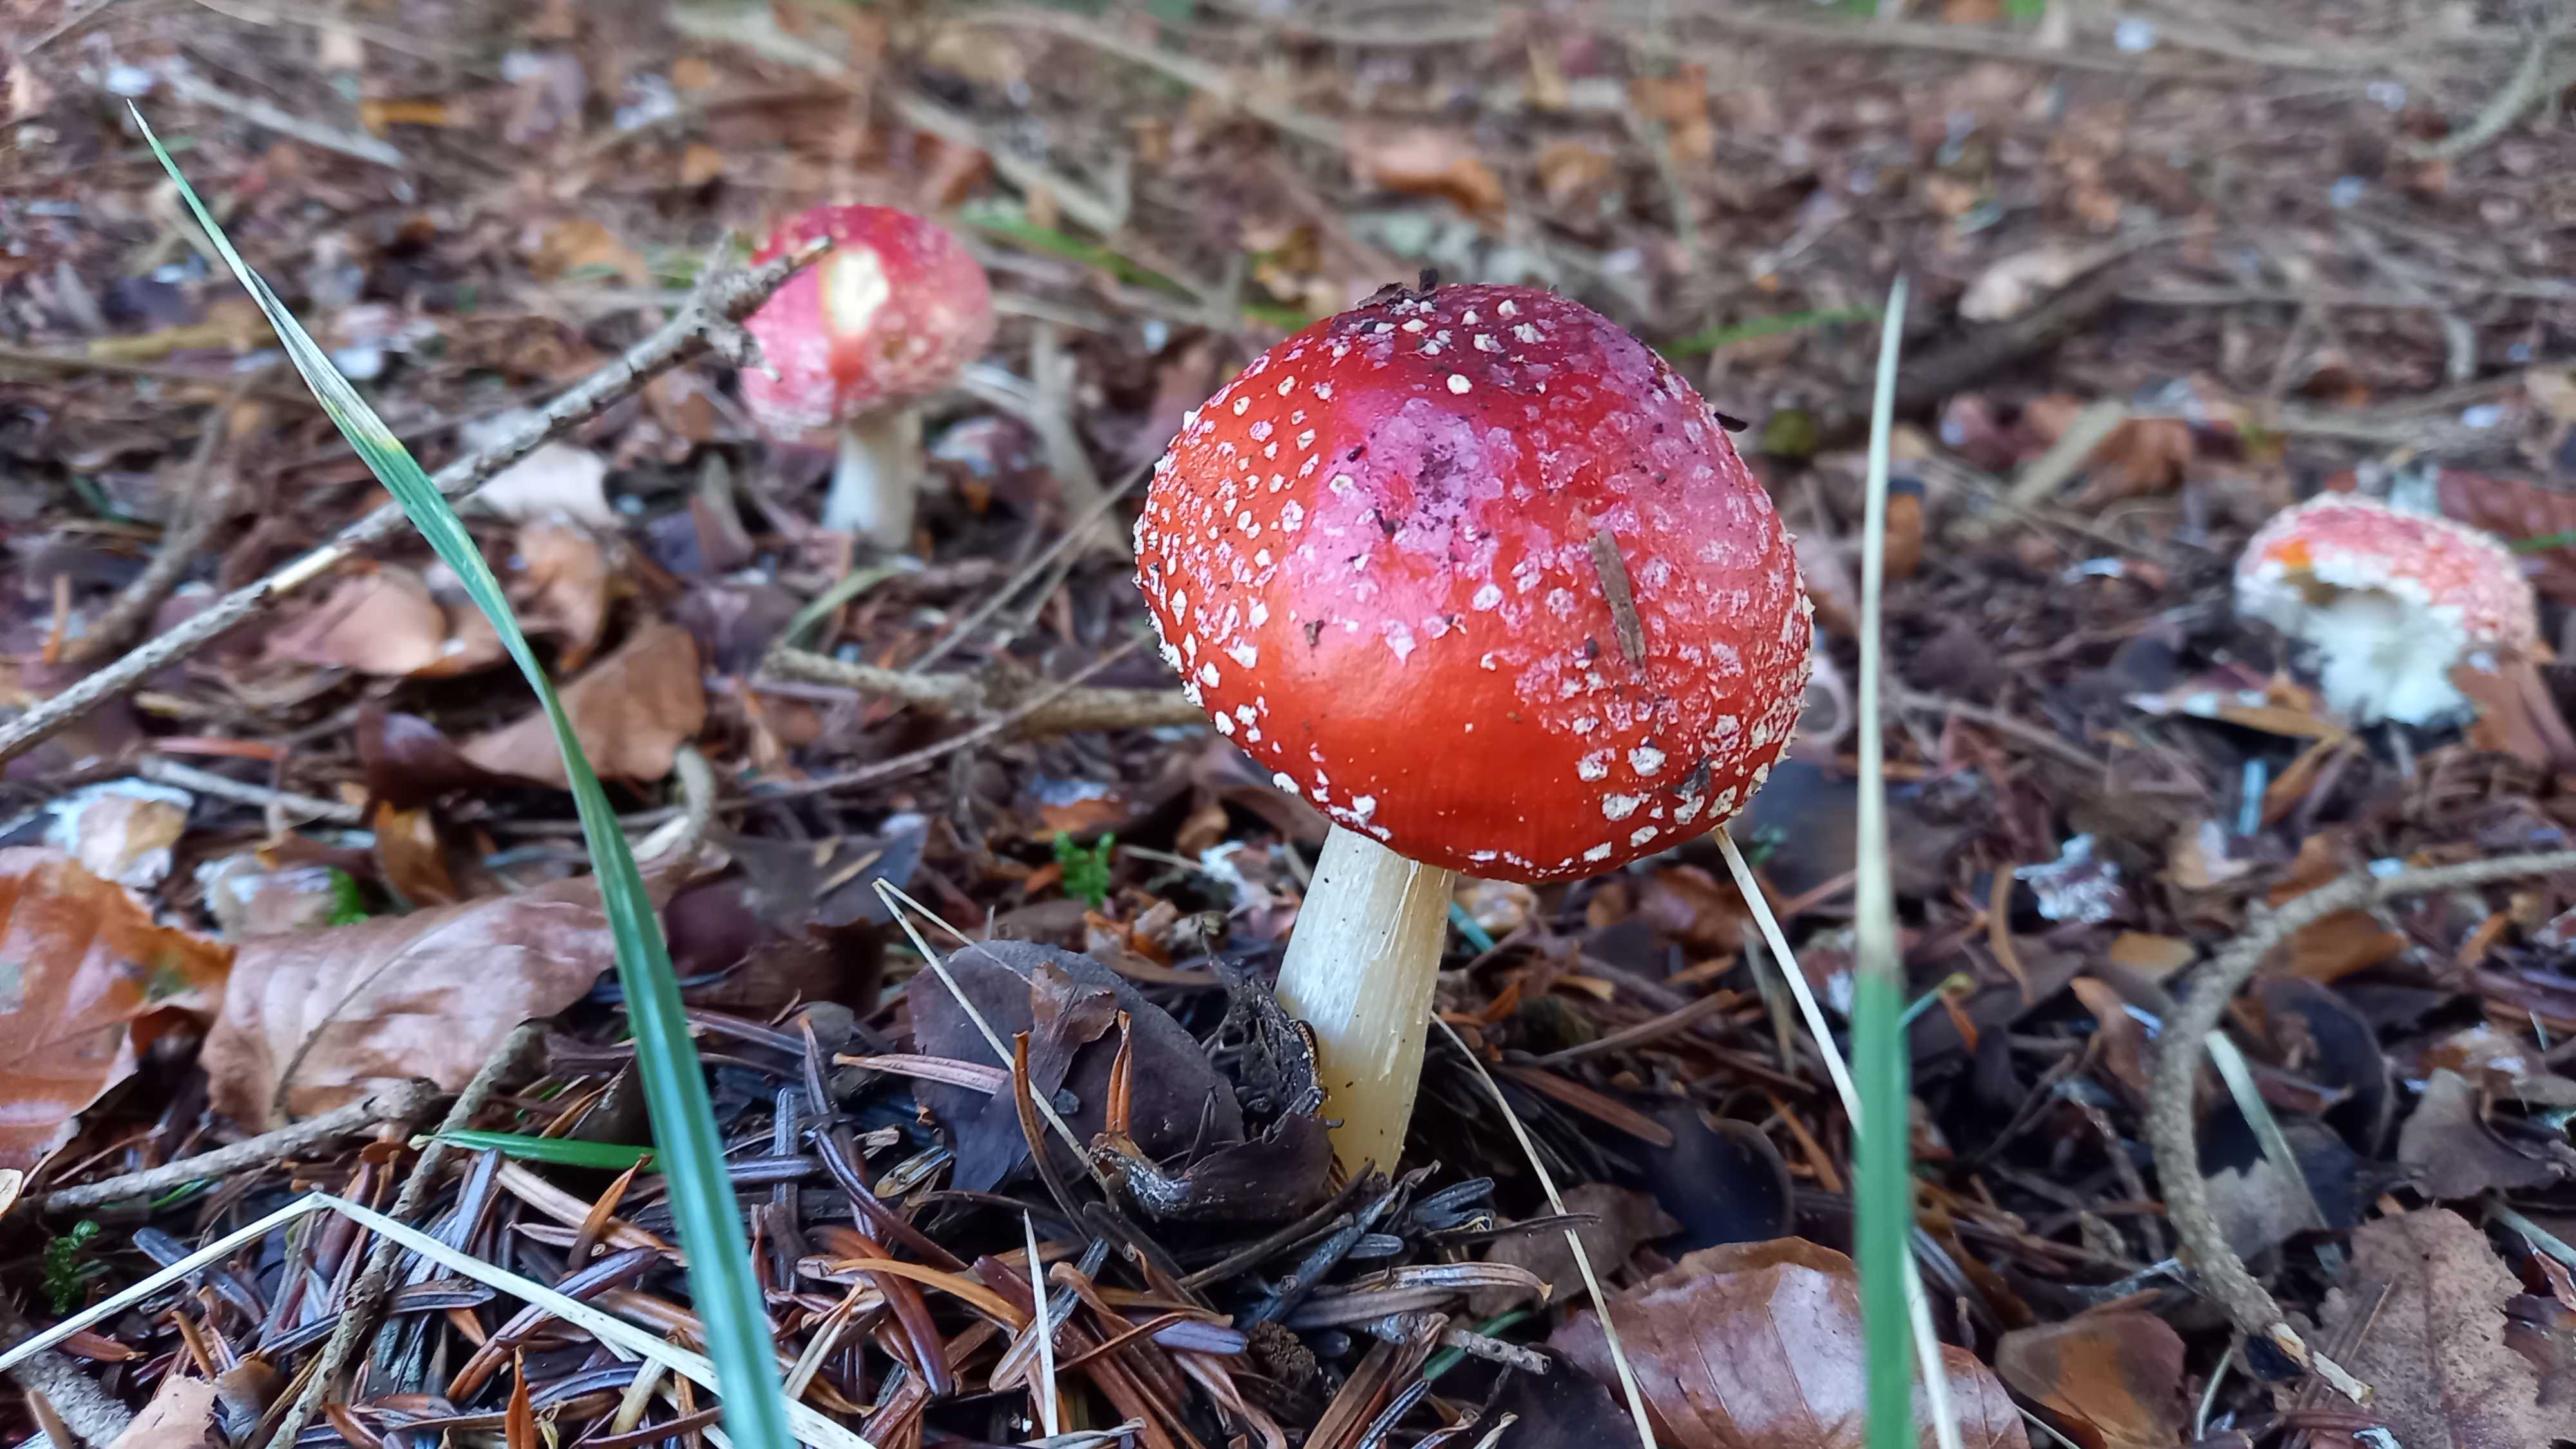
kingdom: Fungi
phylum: Basidiomycota
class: Agaricomycetes
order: Agaricales
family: Amanitaceae
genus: Amanita
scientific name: Amanita muscaria
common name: rød fluesvamp
